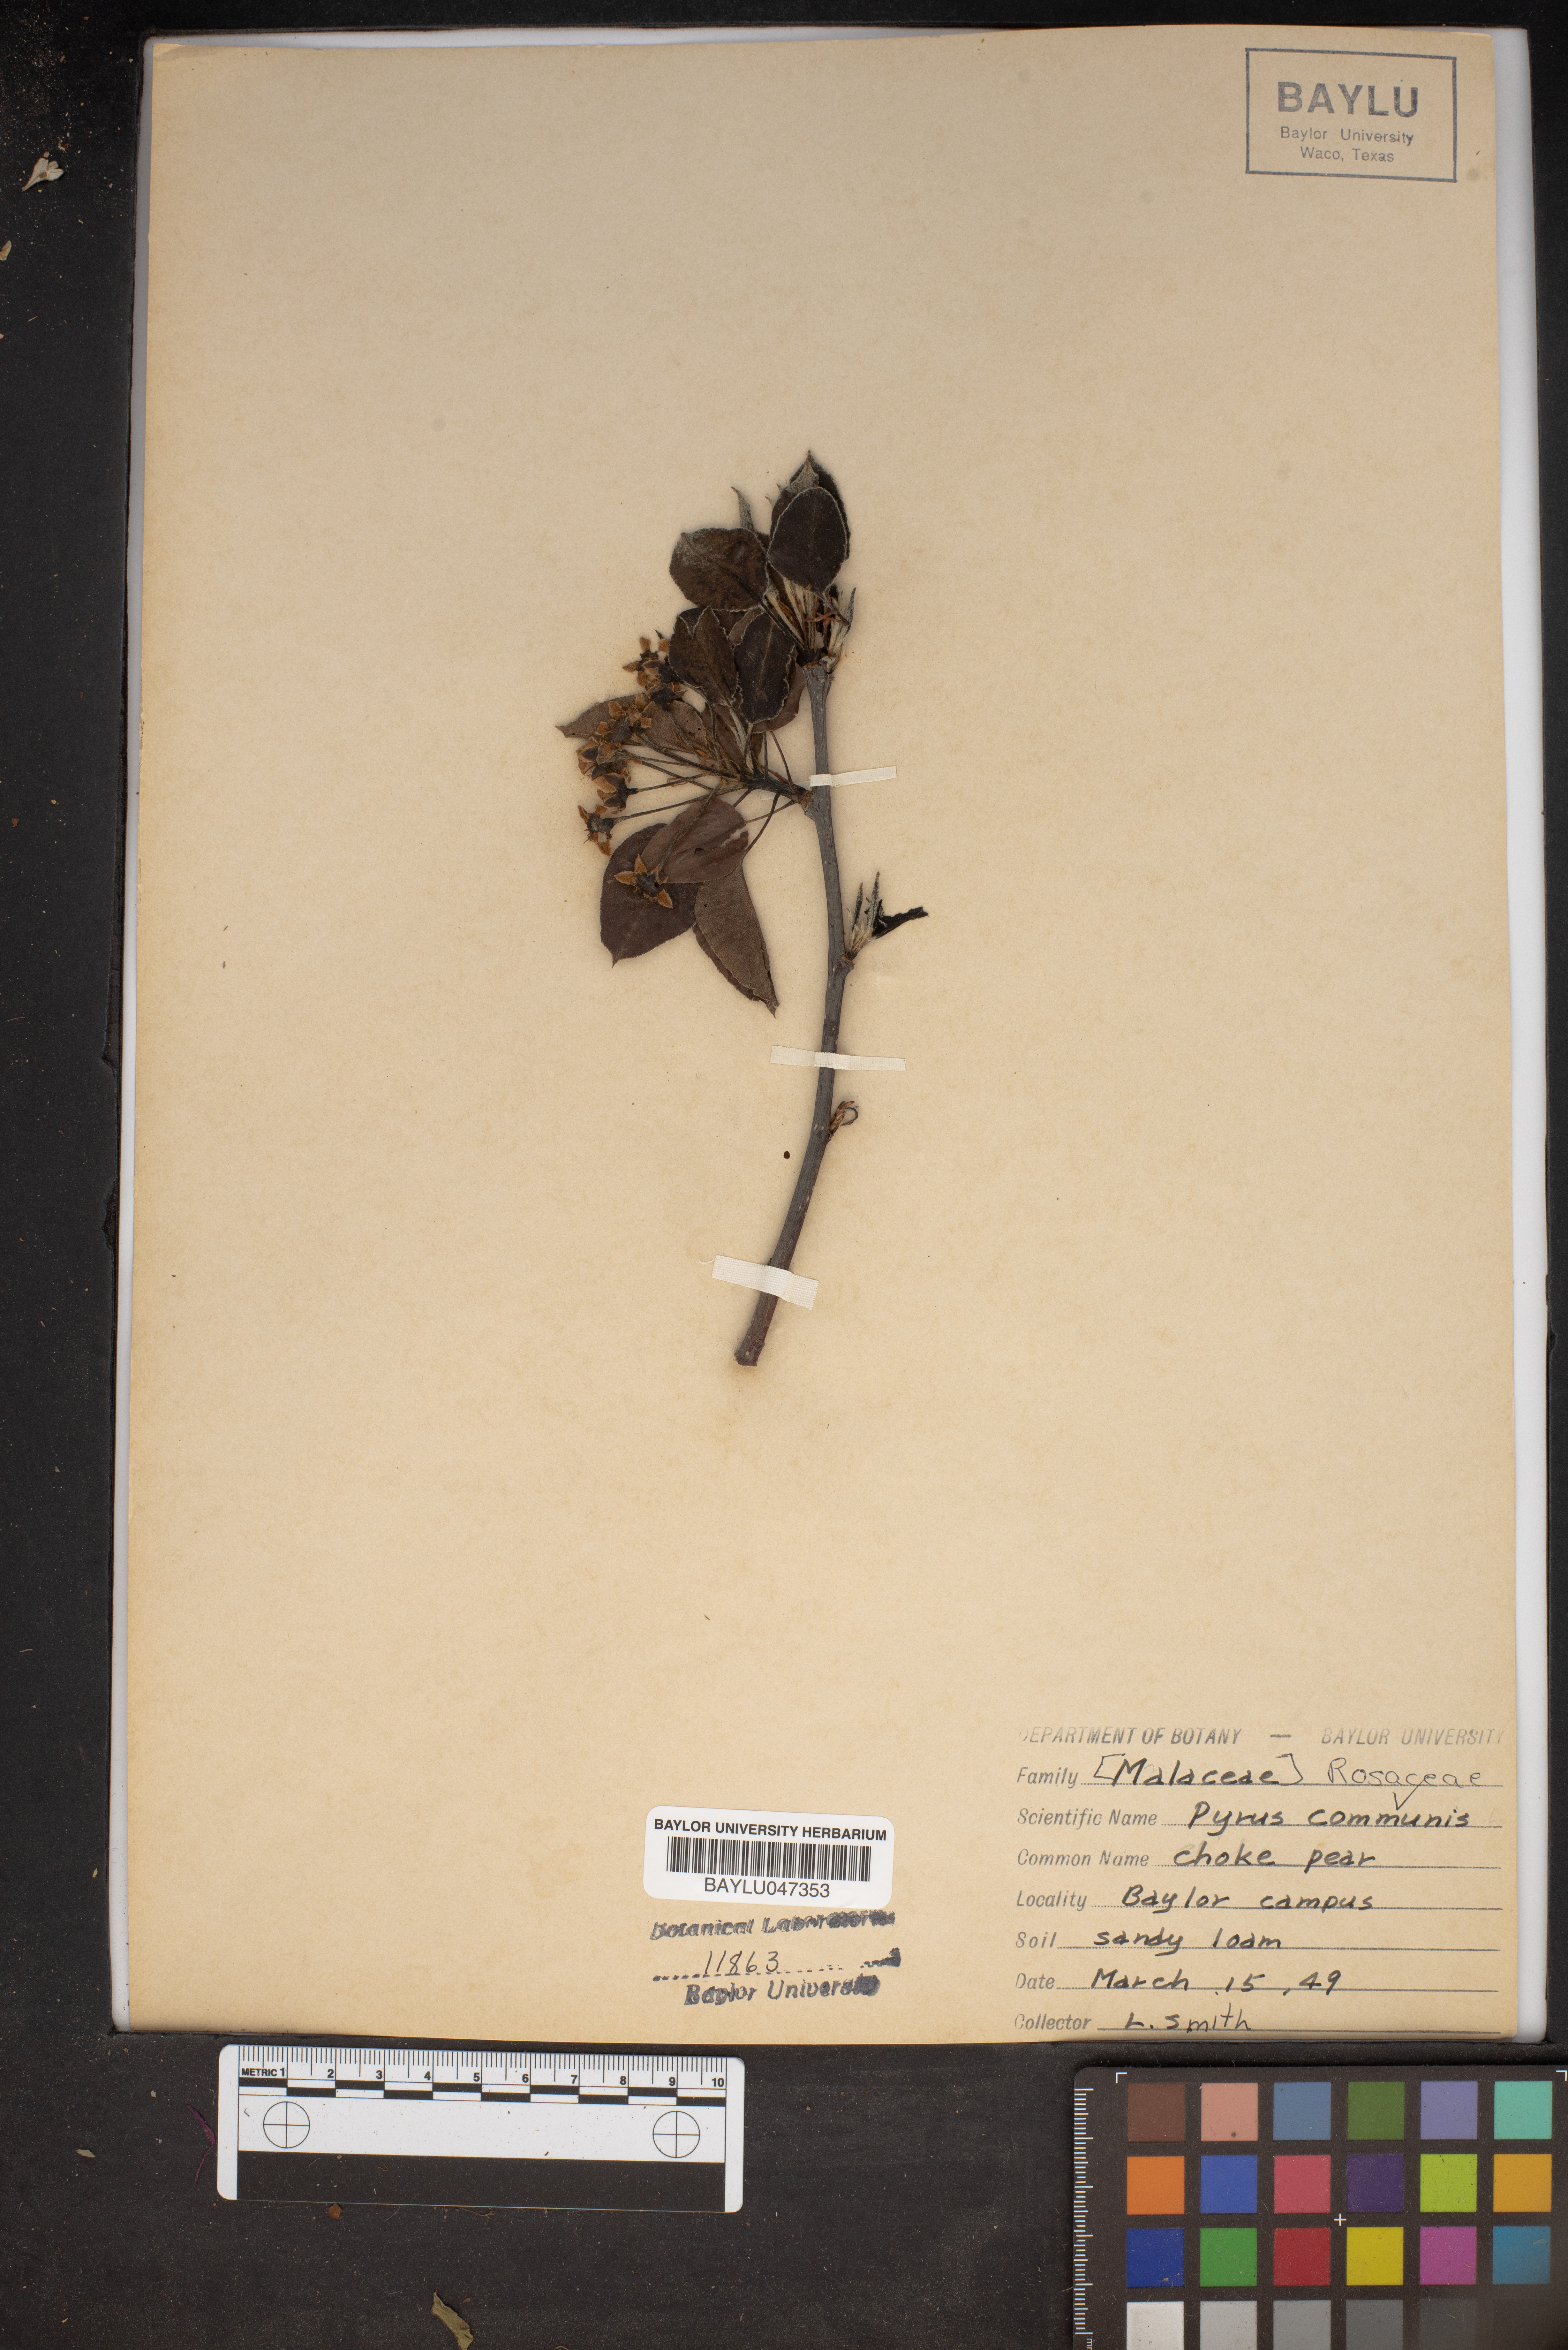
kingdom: Plantae
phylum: Tracheophyta
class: Magnoliopsida
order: Rosales
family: Rosaceae
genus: Pyrus
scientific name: Pyrus communis
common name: Pear
